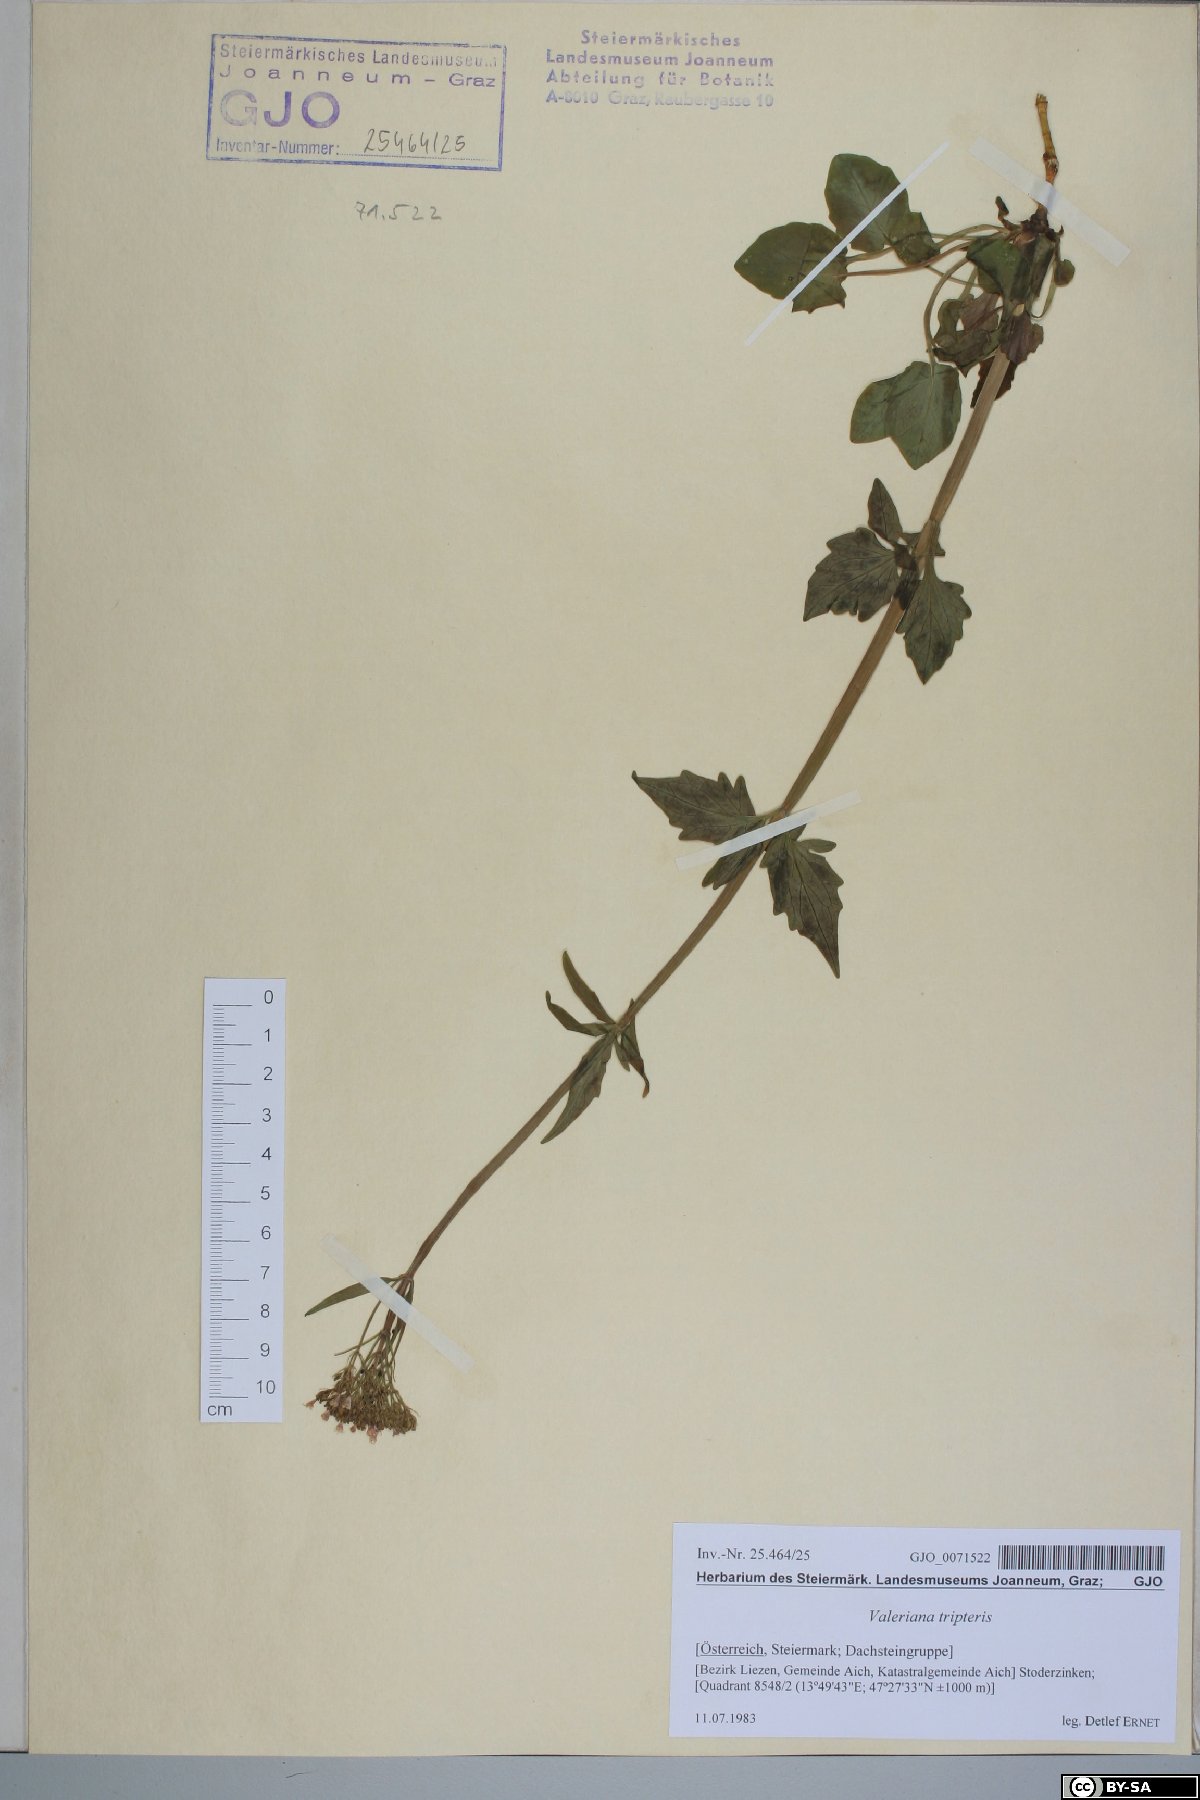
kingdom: Plantae
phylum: Tracheophyta
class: Magnoliopsida
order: Dipsacales
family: Caprifoliaceae
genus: Valeriana
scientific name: Valeriana tripteris
